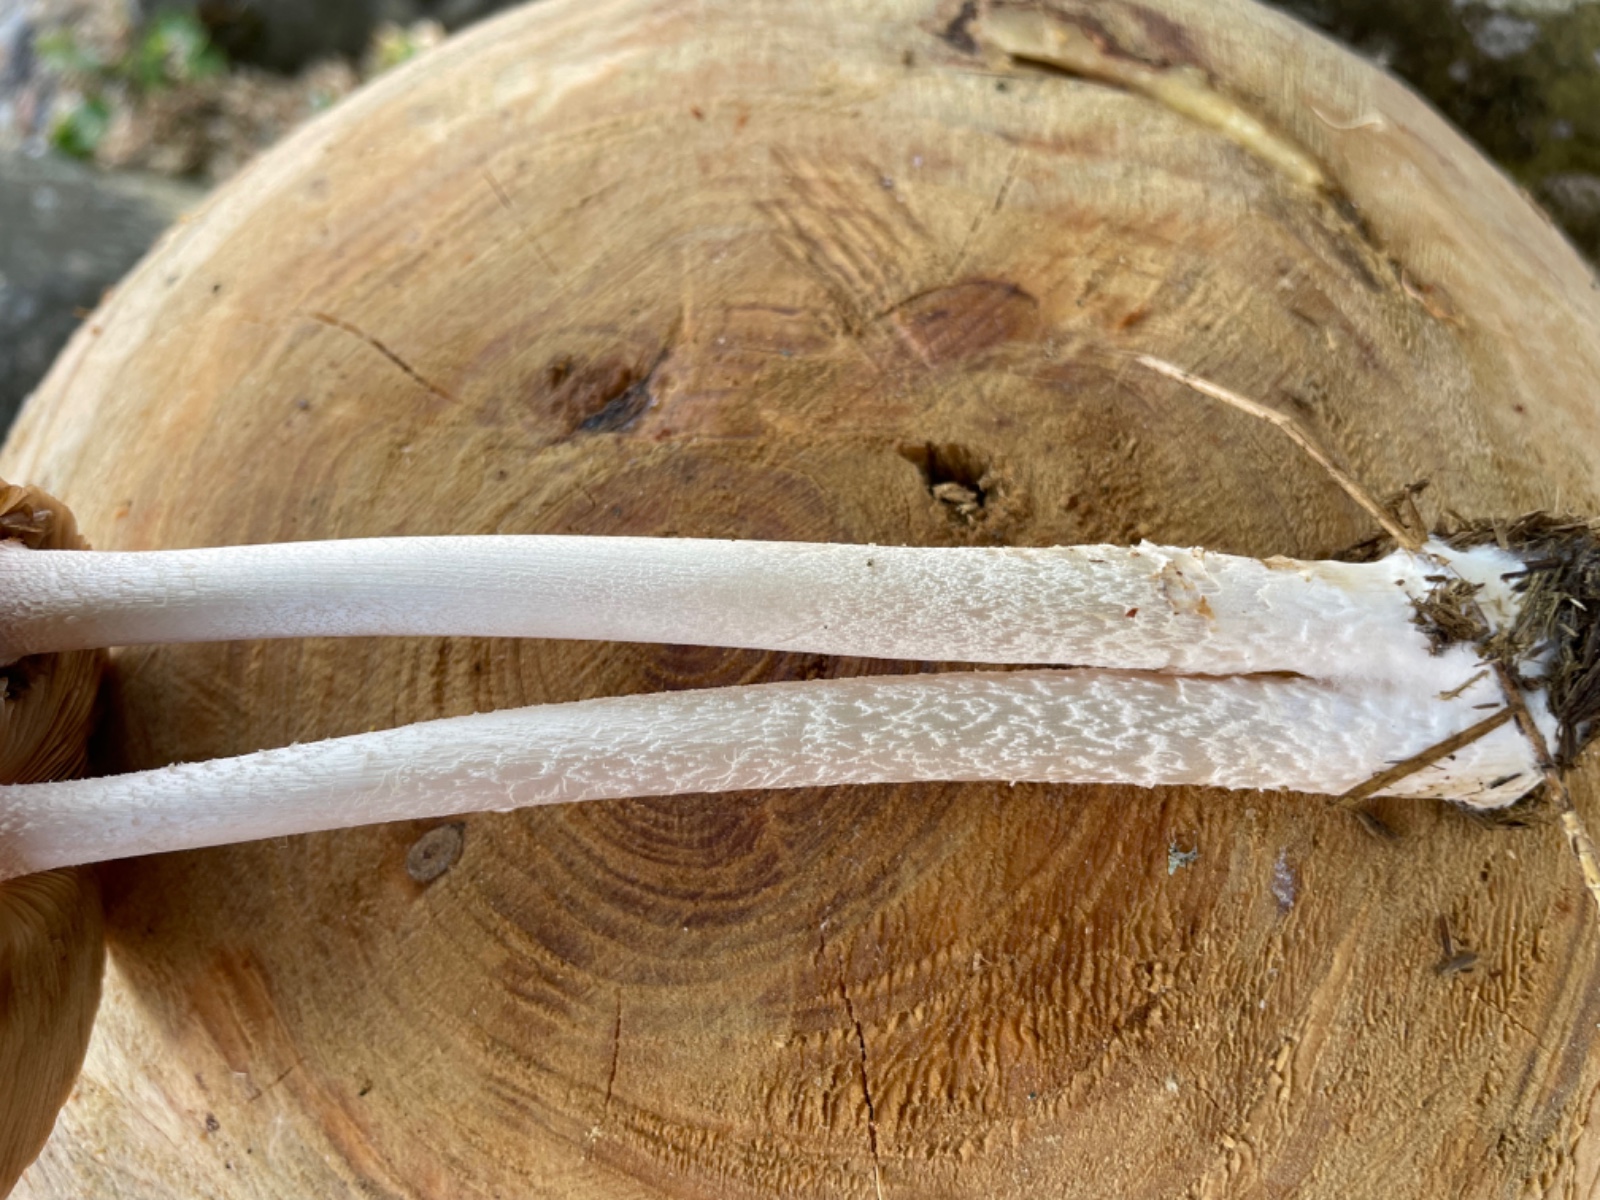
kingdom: Fungi
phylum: Basidiomycota
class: Agaricomycetes
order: Agaricales
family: Bolbitiaceae
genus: Bolbitius
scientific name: Bolbitius coprophilus
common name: rosa gulhat
